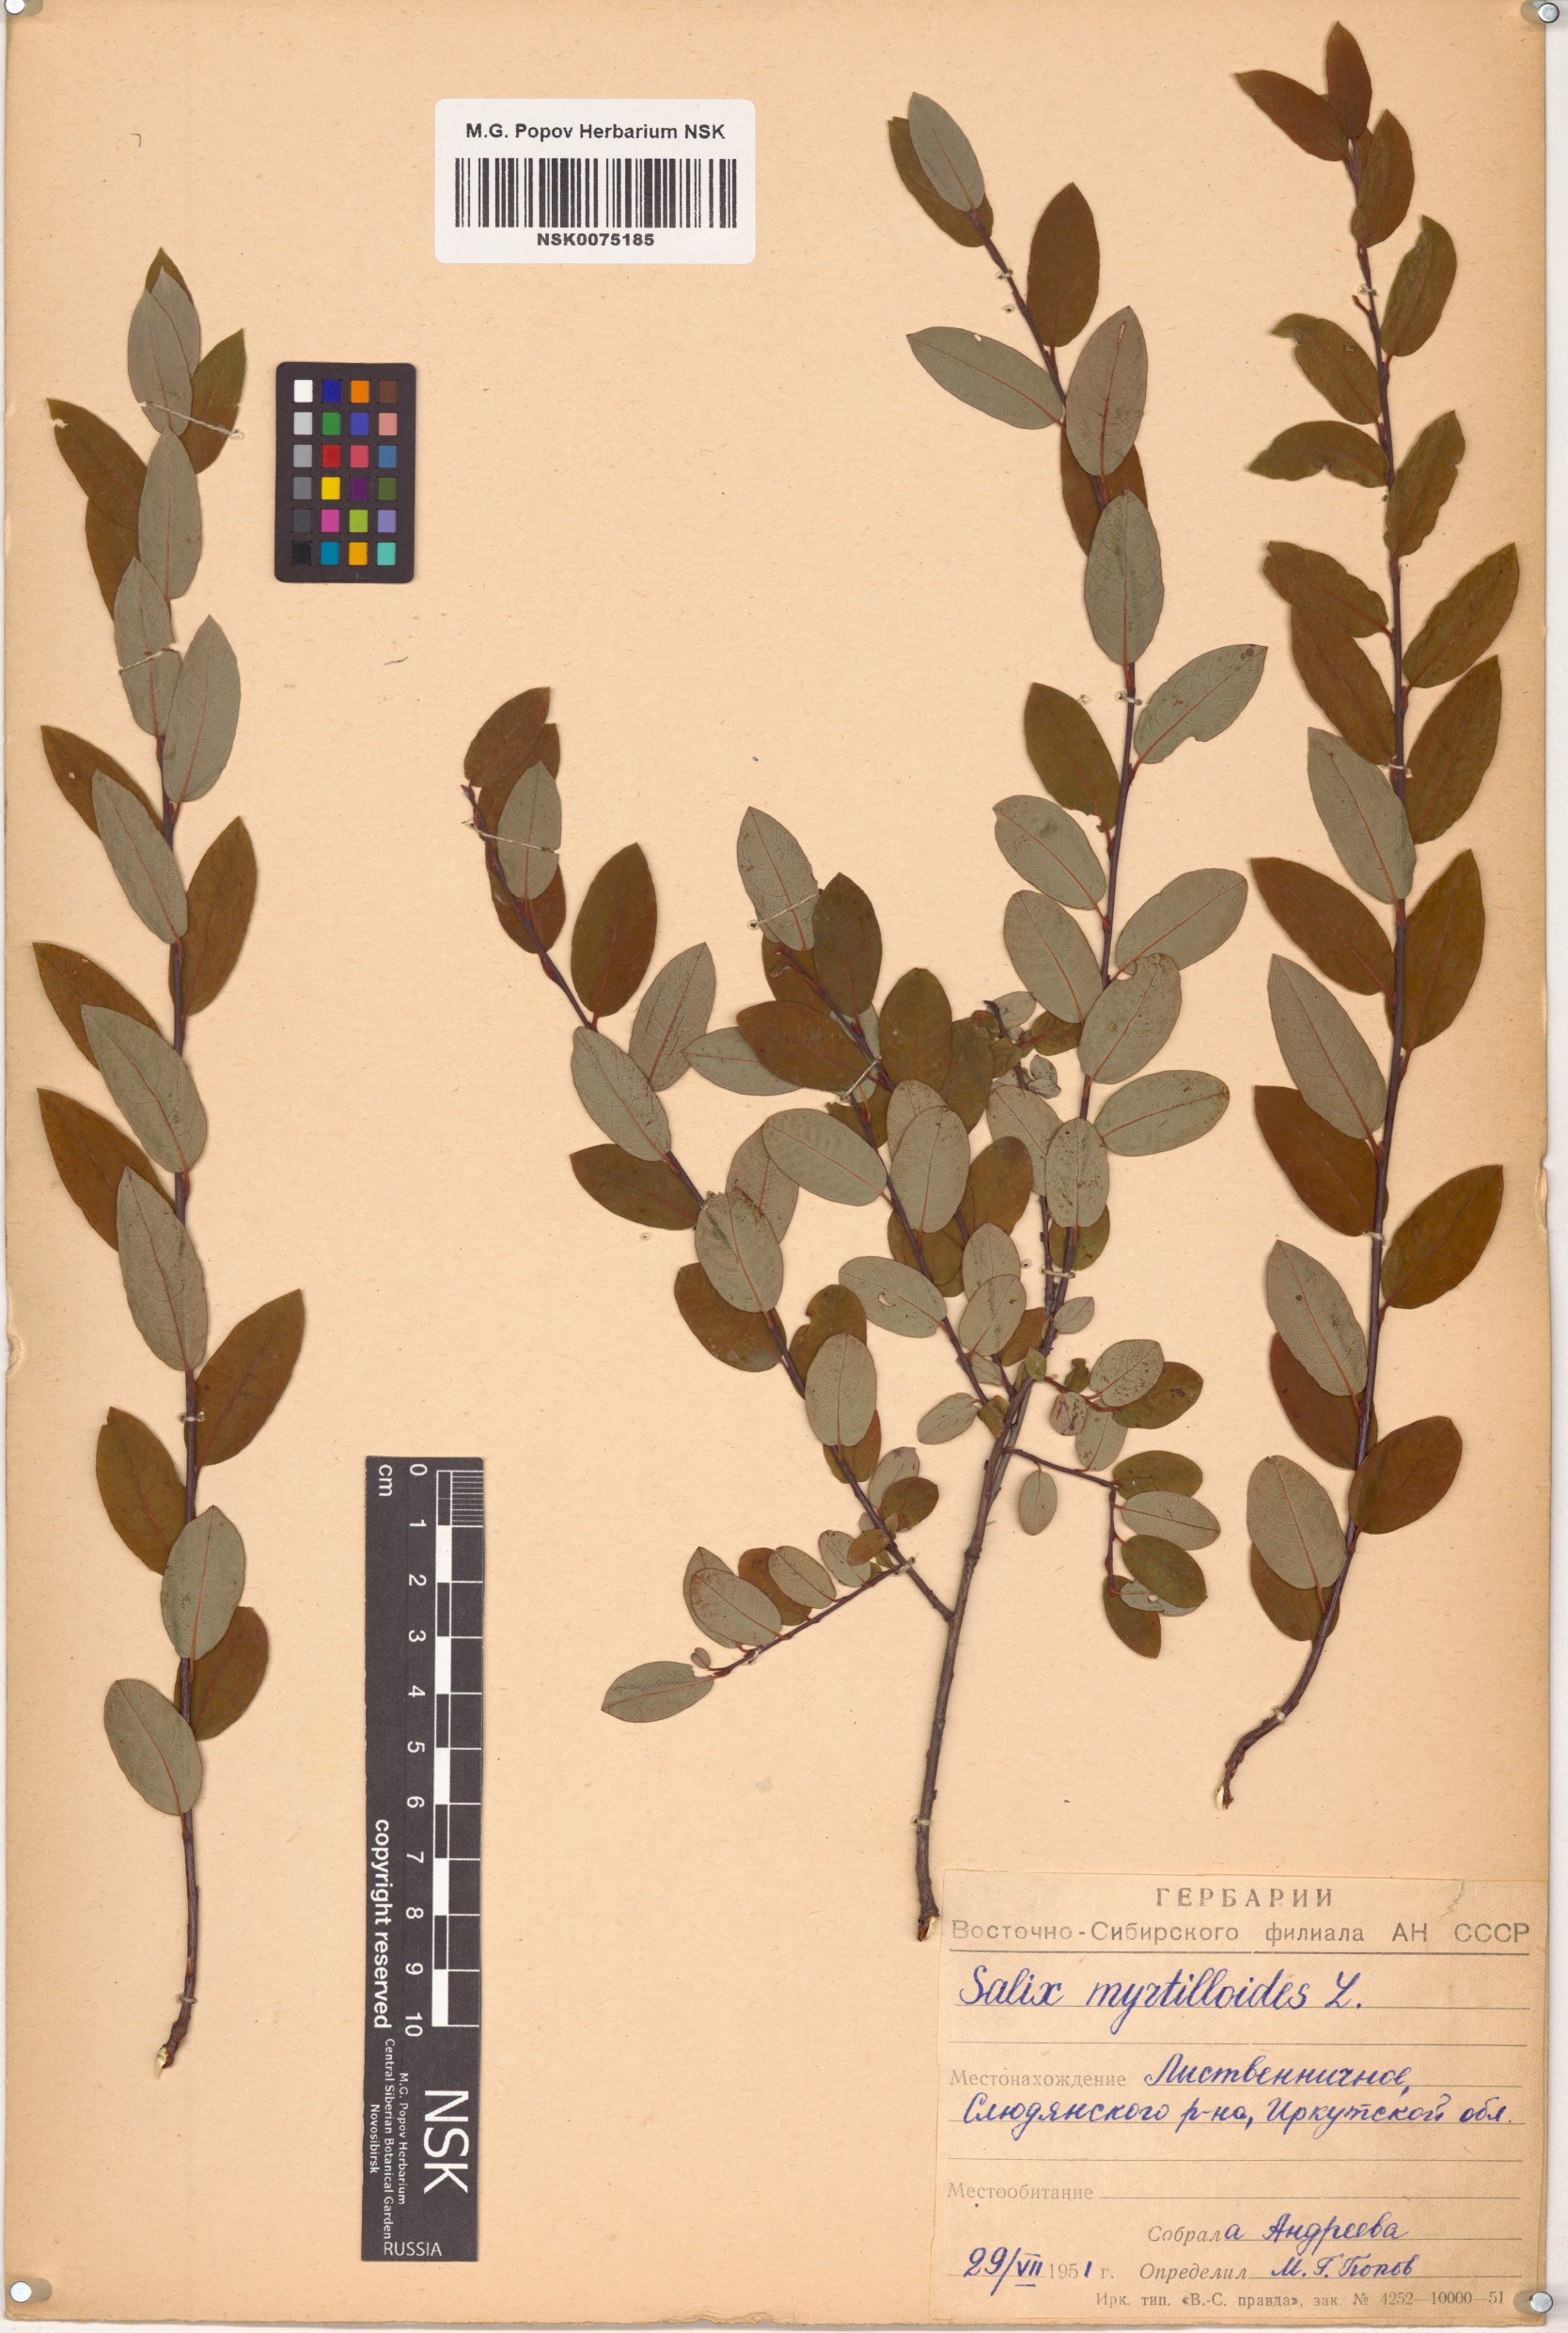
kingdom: Plantae
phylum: Tracheophyta
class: Magnoliopsida
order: Malpighiales
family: Salicaceae
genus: Salix
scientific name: Salix myrtilloides
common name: Myrtle-leaved willow
